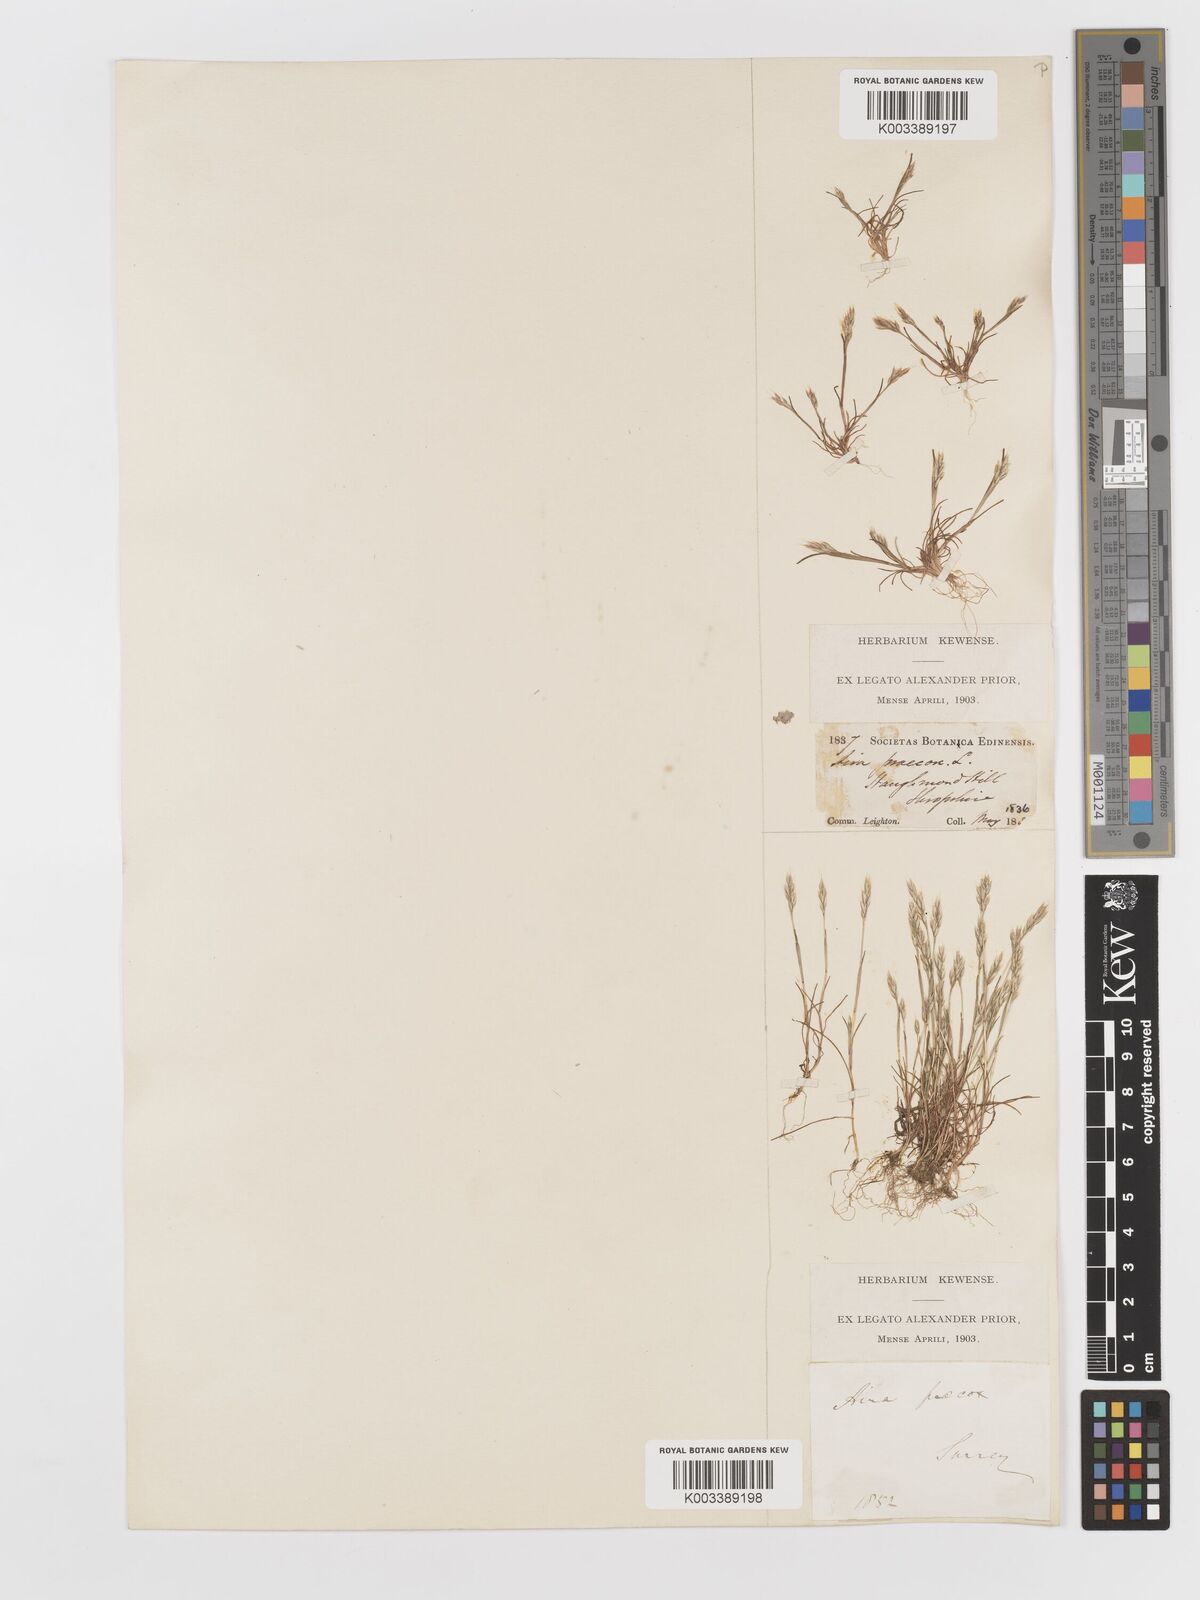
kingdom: Plantae
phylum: Tracheophyta
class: Liliopsida
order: Poales
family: Poaceae
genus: Aira
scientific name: Aira praecox
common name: Early hair-grass
